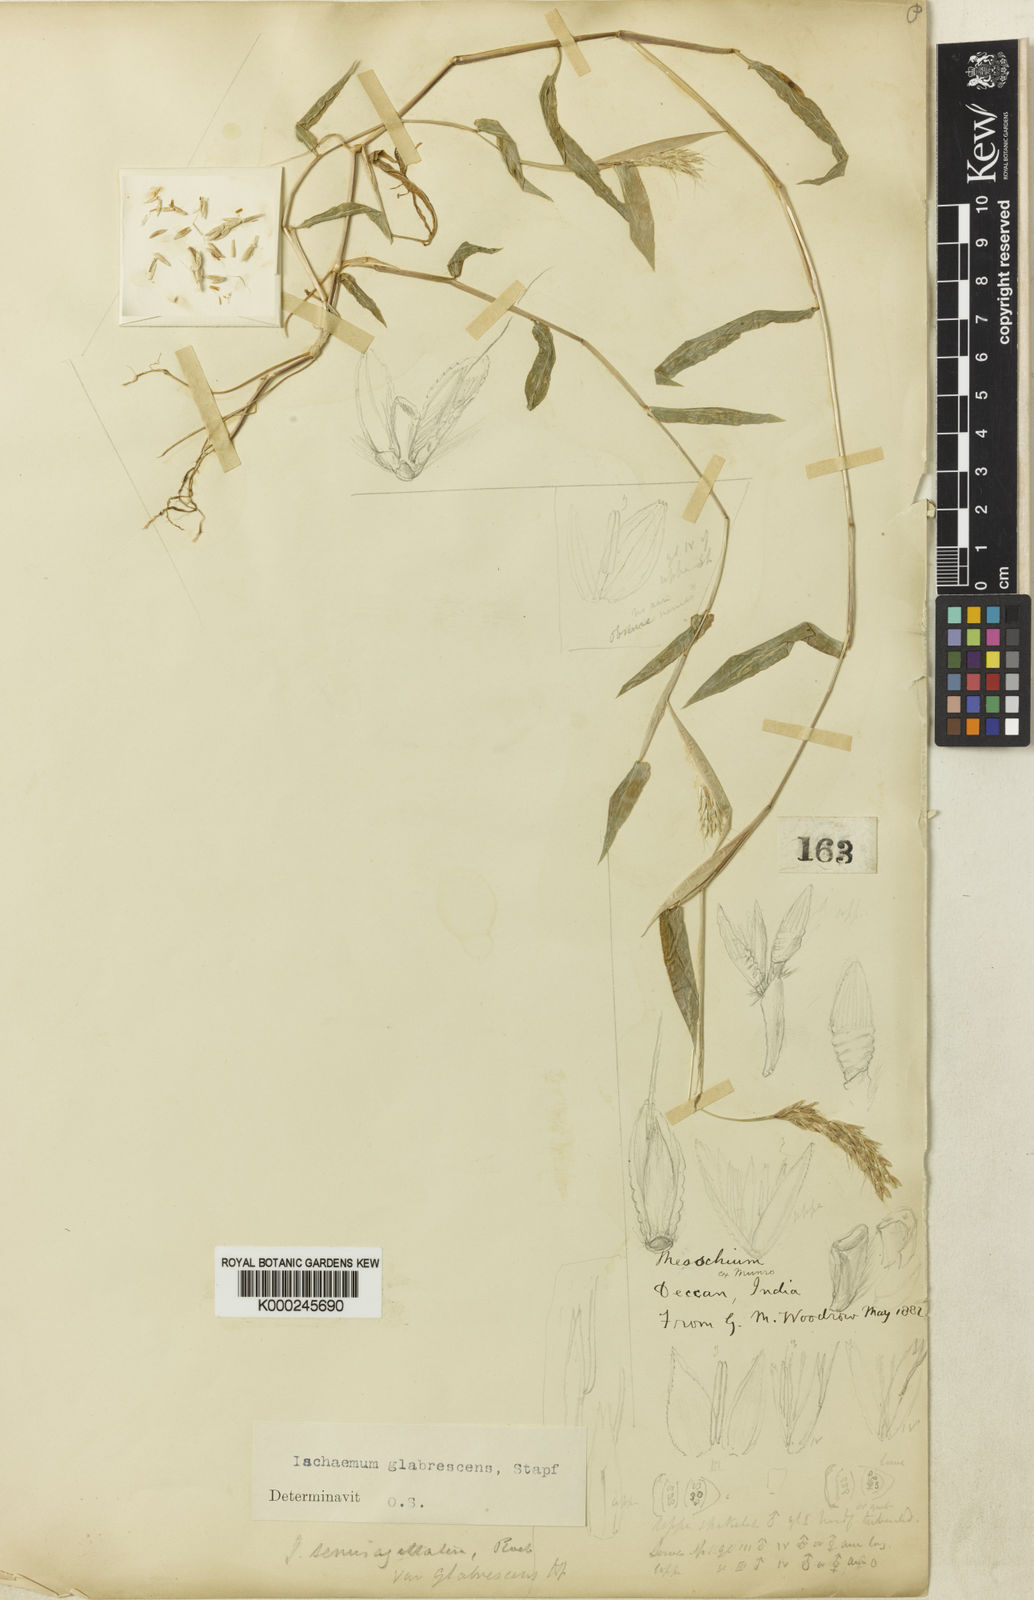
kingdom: Plantae
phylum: Tracheophyta
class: Liliopsida
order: Poales
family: Poaceae
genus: Ischaemum
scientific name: Ischaemum semisagittatum
